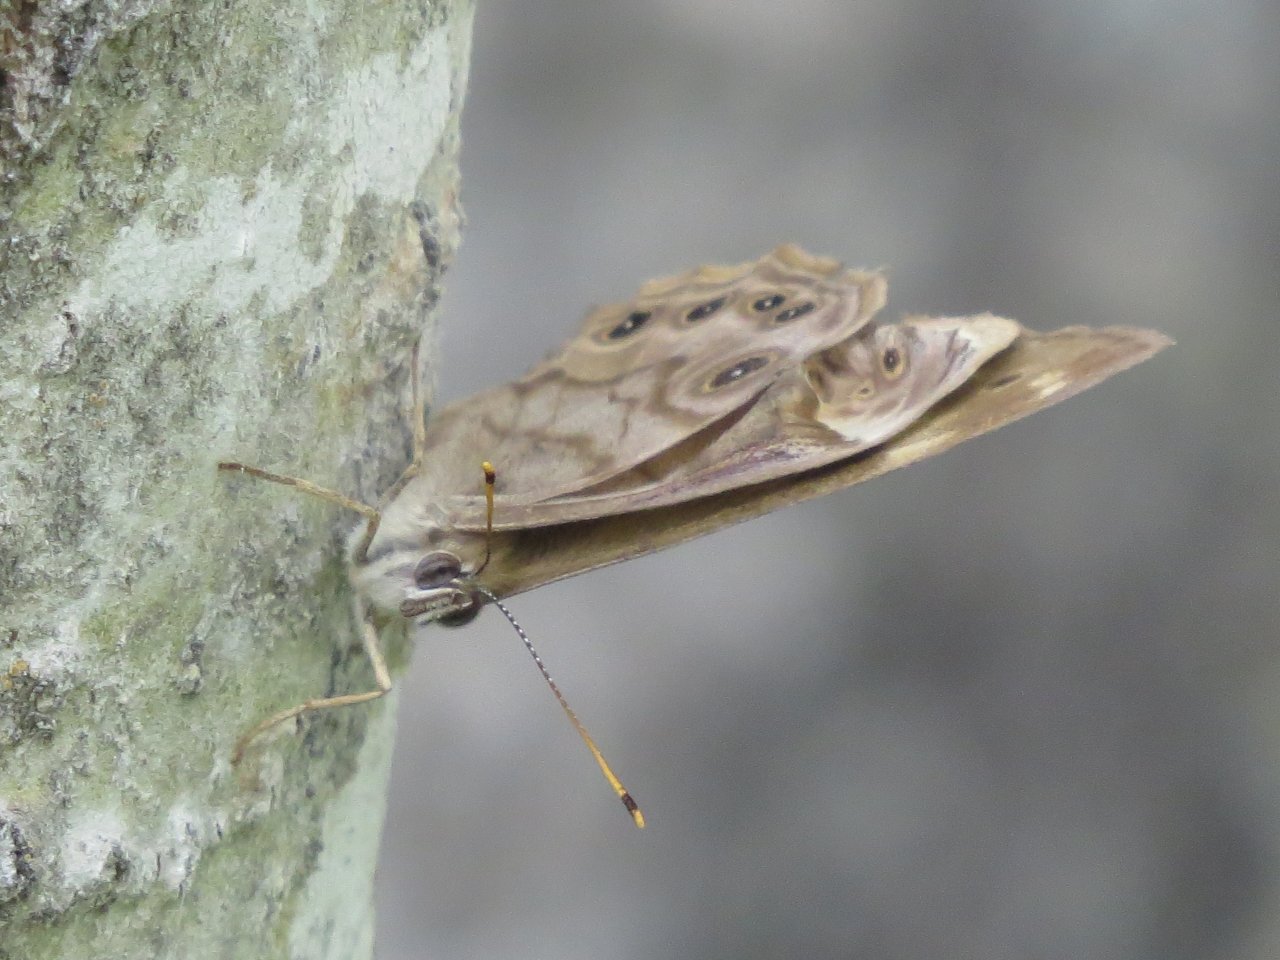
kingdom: Animalia
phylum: Arthropoda
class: Insecta
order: Lepidoptera
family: Nymphalidae
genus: Lethe
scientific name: Lethe anthedon
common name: Northern Pearly-Eye
